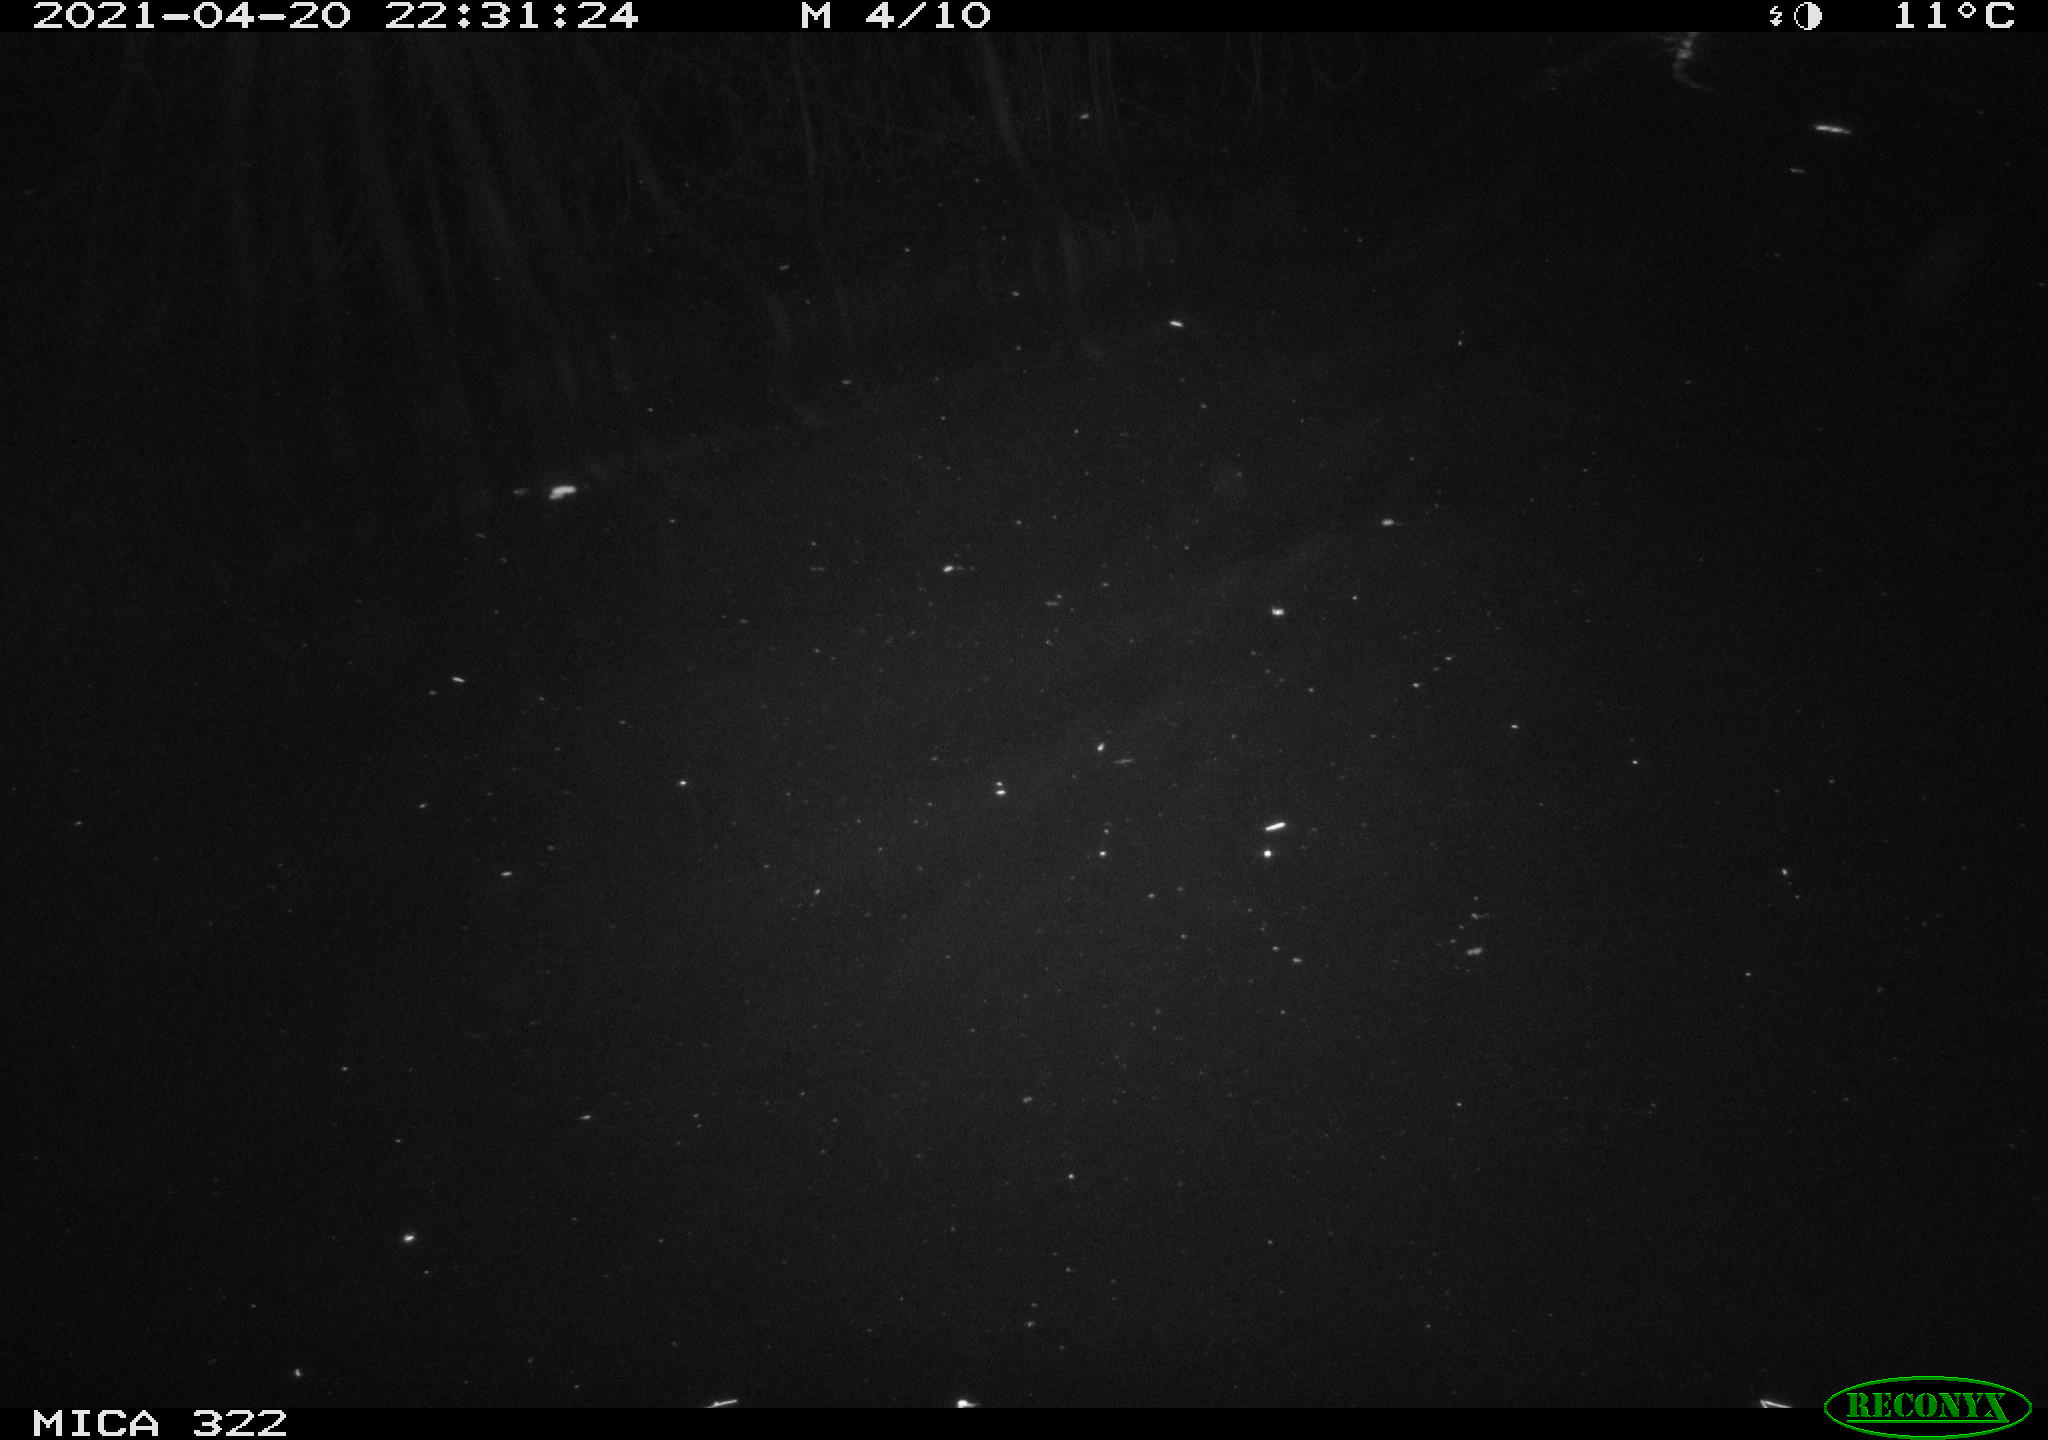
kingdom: Animalia
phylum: Chordata
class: Mammalia
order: Rodentia
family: Muridae
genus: Rattus
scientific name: Rattus norvegicus
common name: Brown rat
